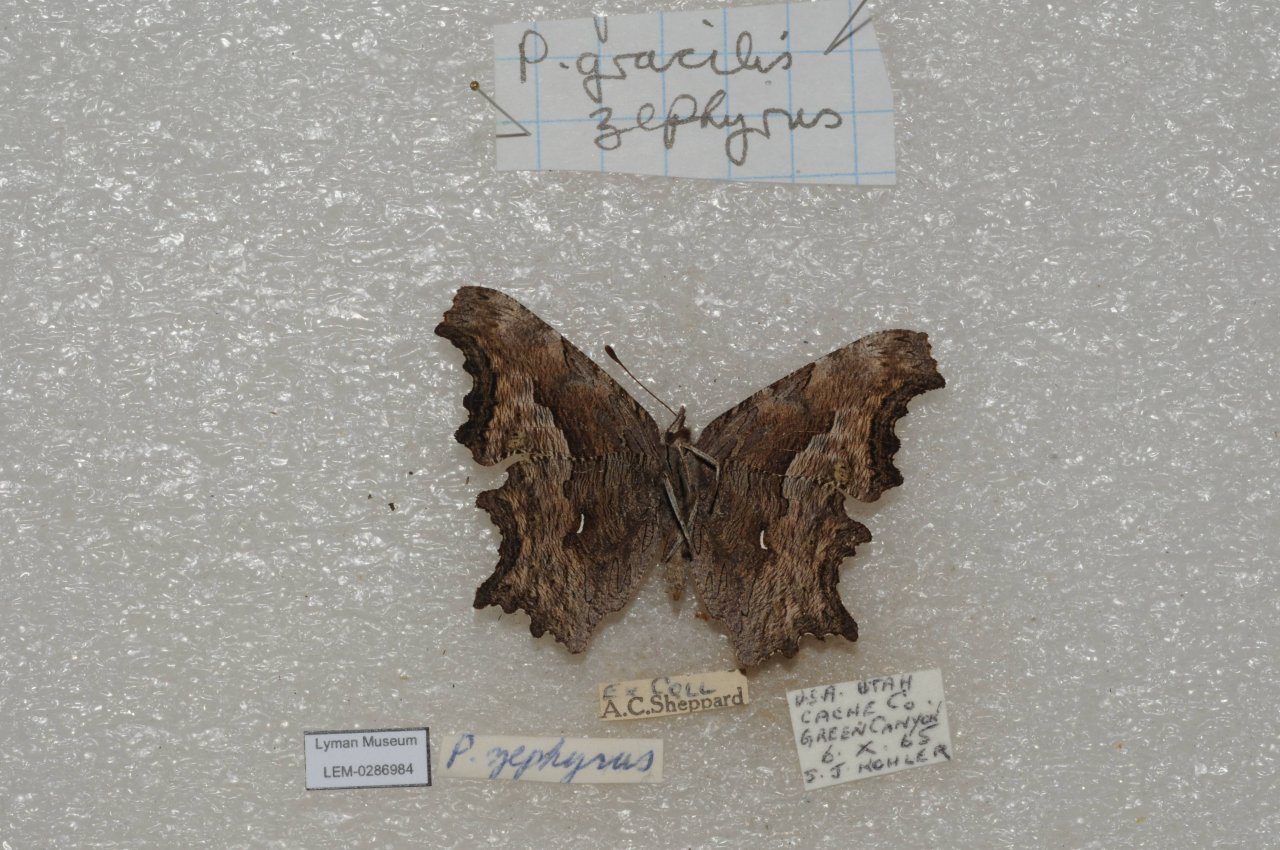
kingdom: Animalia
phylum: Arthropoda
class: Insecta
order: Lepidoptera
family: Nymphalidae
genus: Polygonia
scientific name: Polygonia gracilis
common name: Hoary Comma
